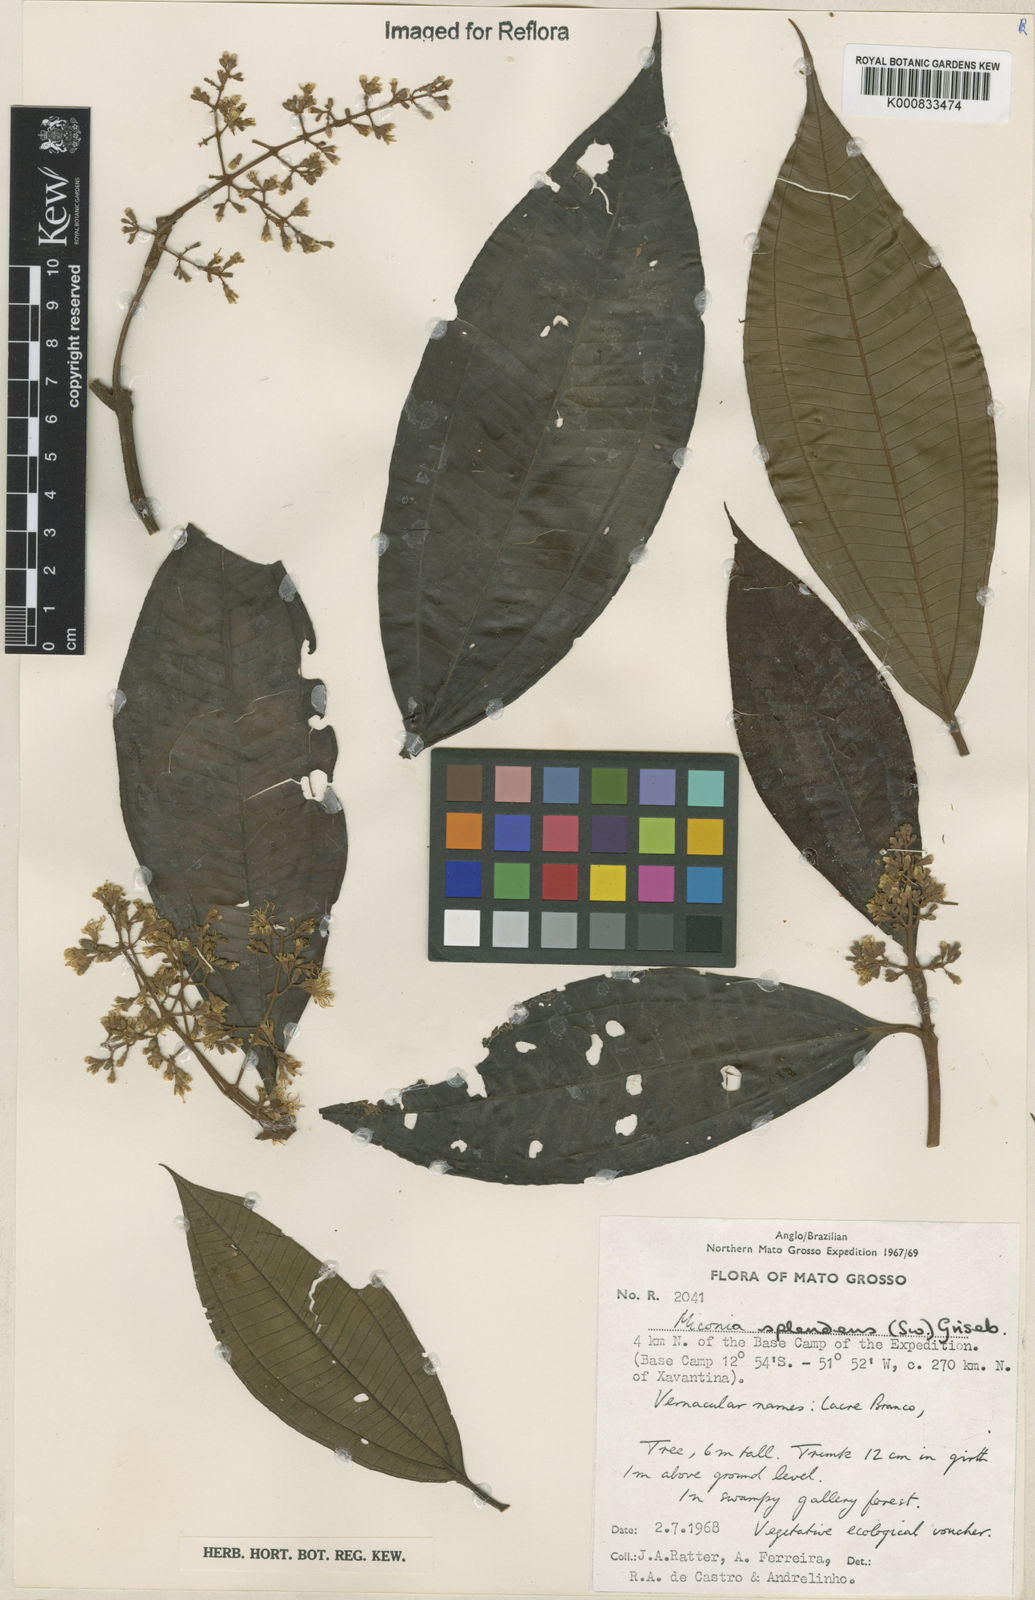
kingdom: Plantae
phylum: Tracheophyta
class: Magnoliopsida
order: Myrtales
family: Melastomataceae
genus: Miconia
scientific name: Miconia splendens
